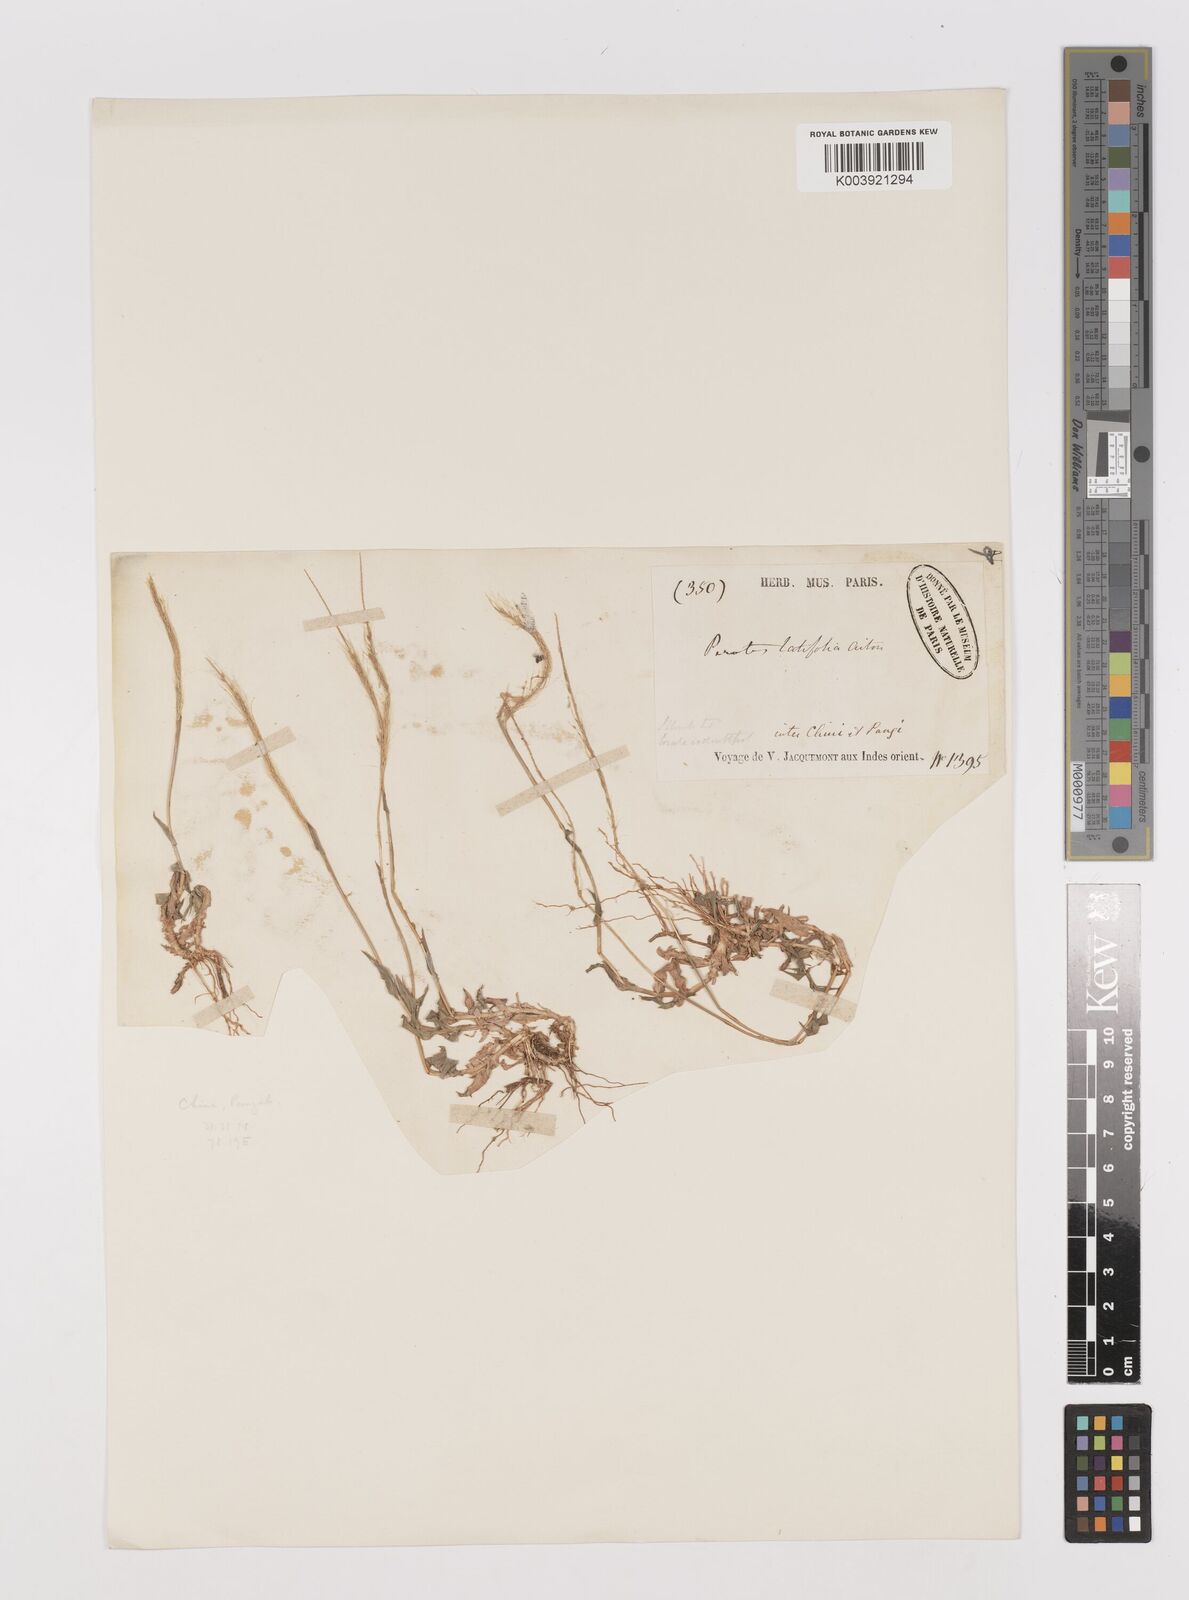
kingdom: Plantae
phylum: Tracheophyta
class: Liliopsida
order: Poales
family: Poaceae
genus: Perotis
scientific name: Perotis indica
